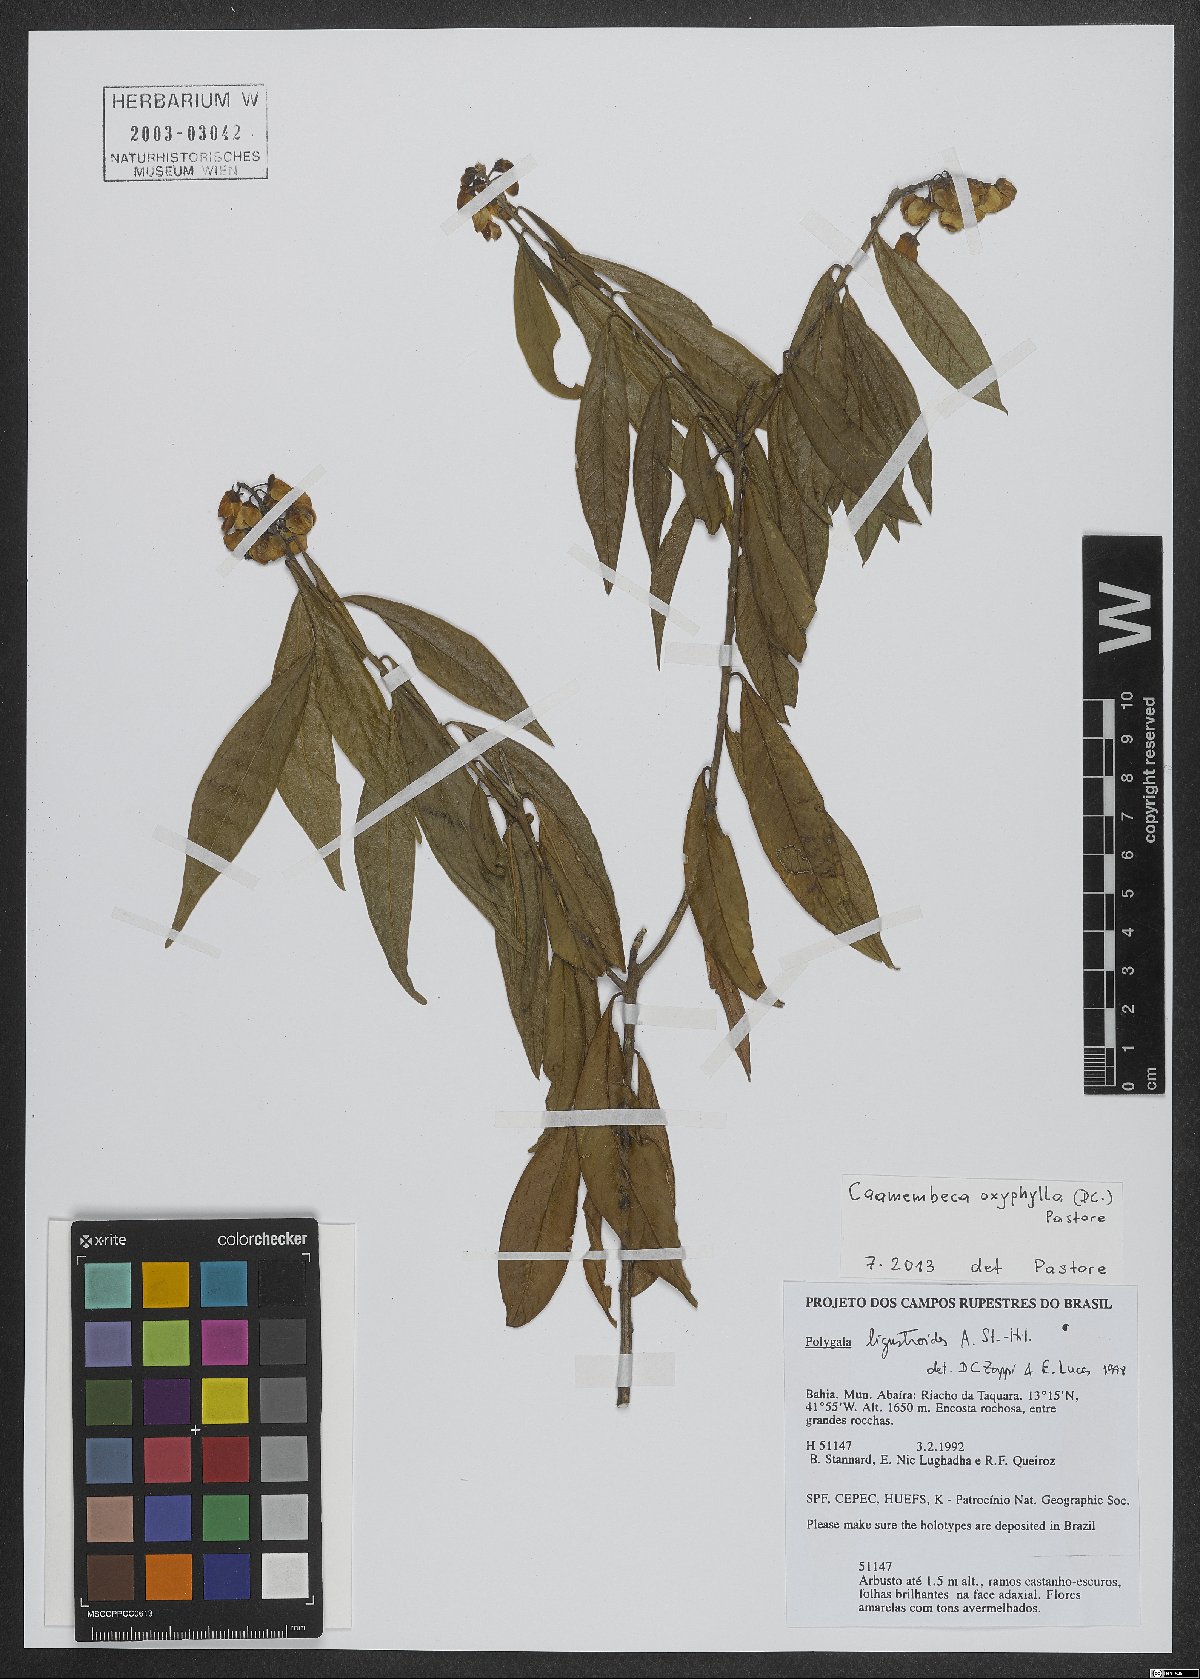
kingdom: Plantae
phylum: Tracheophyta
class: Magnoliopsida
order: Fabales
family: Polygalaceae
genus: Caamembeca
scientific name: Caamembeca oxyphylla
